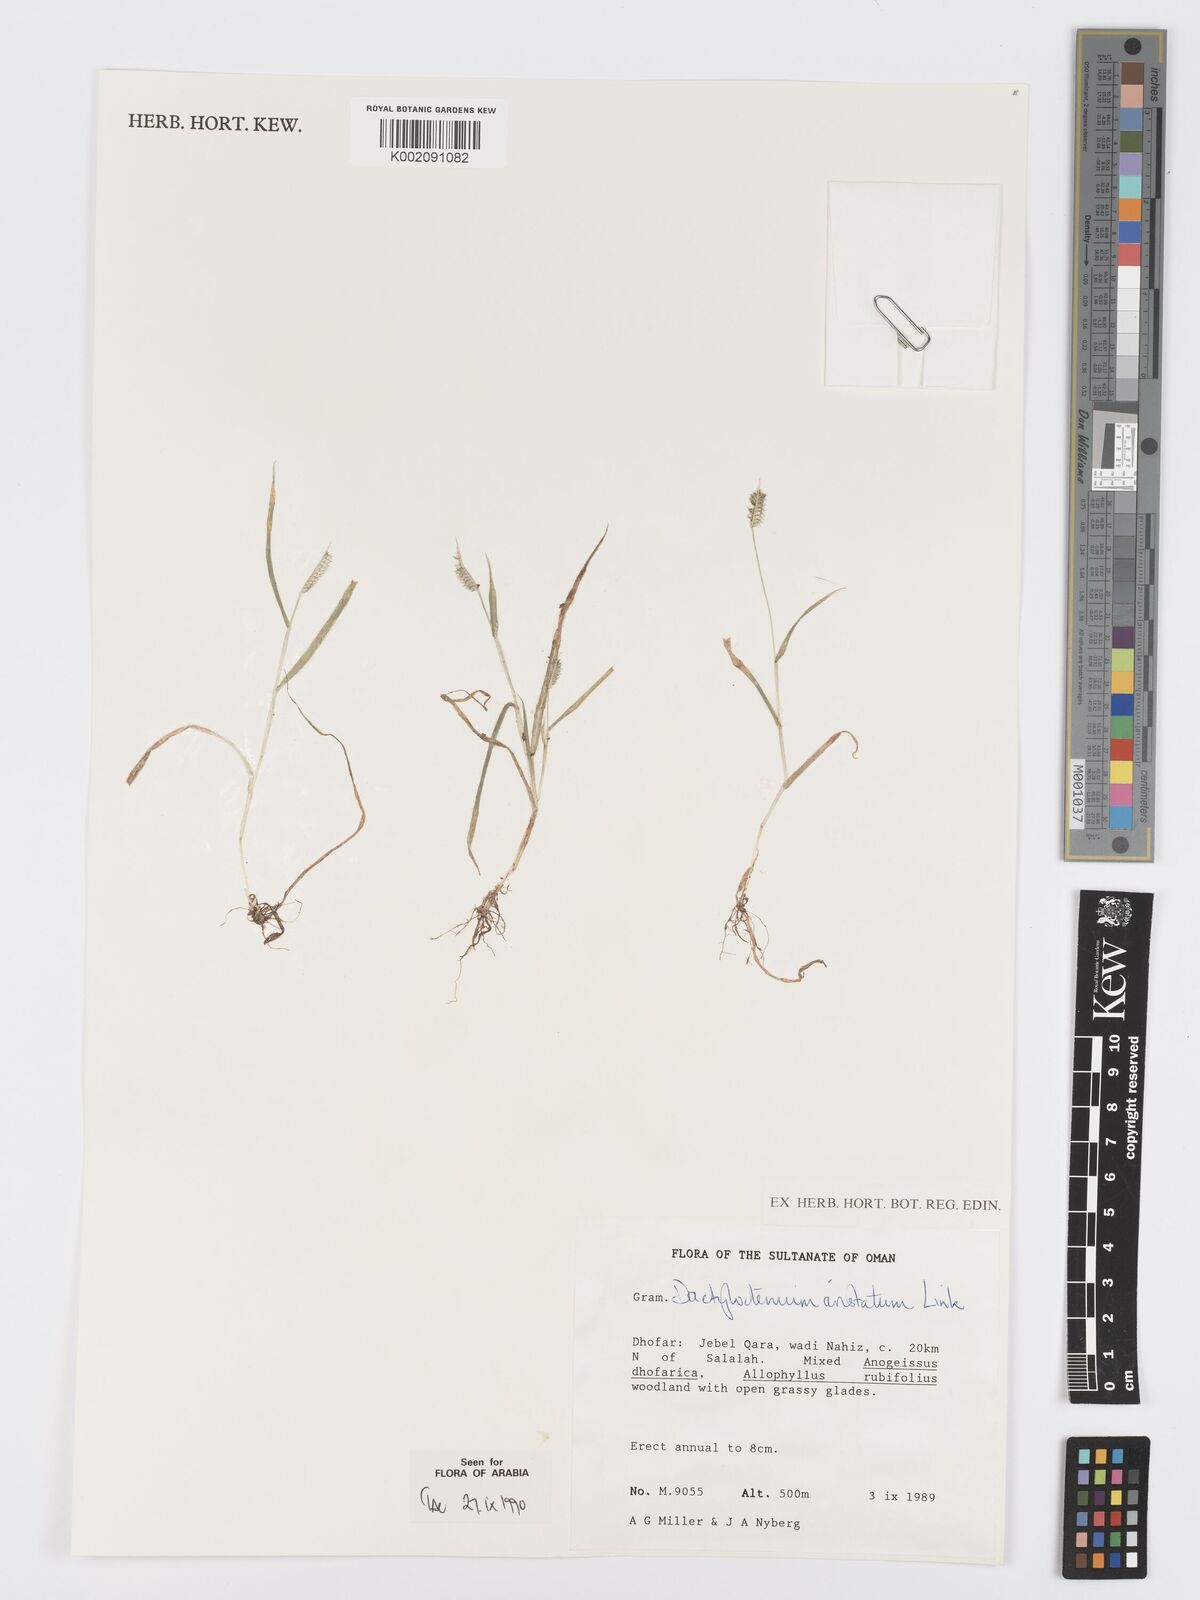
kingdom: Plantae
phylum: Tracheophyta
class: Liliopsida
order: Poales
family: Poaceae
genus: Dactyloctenium
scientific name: Dactyloctenium aristatum
